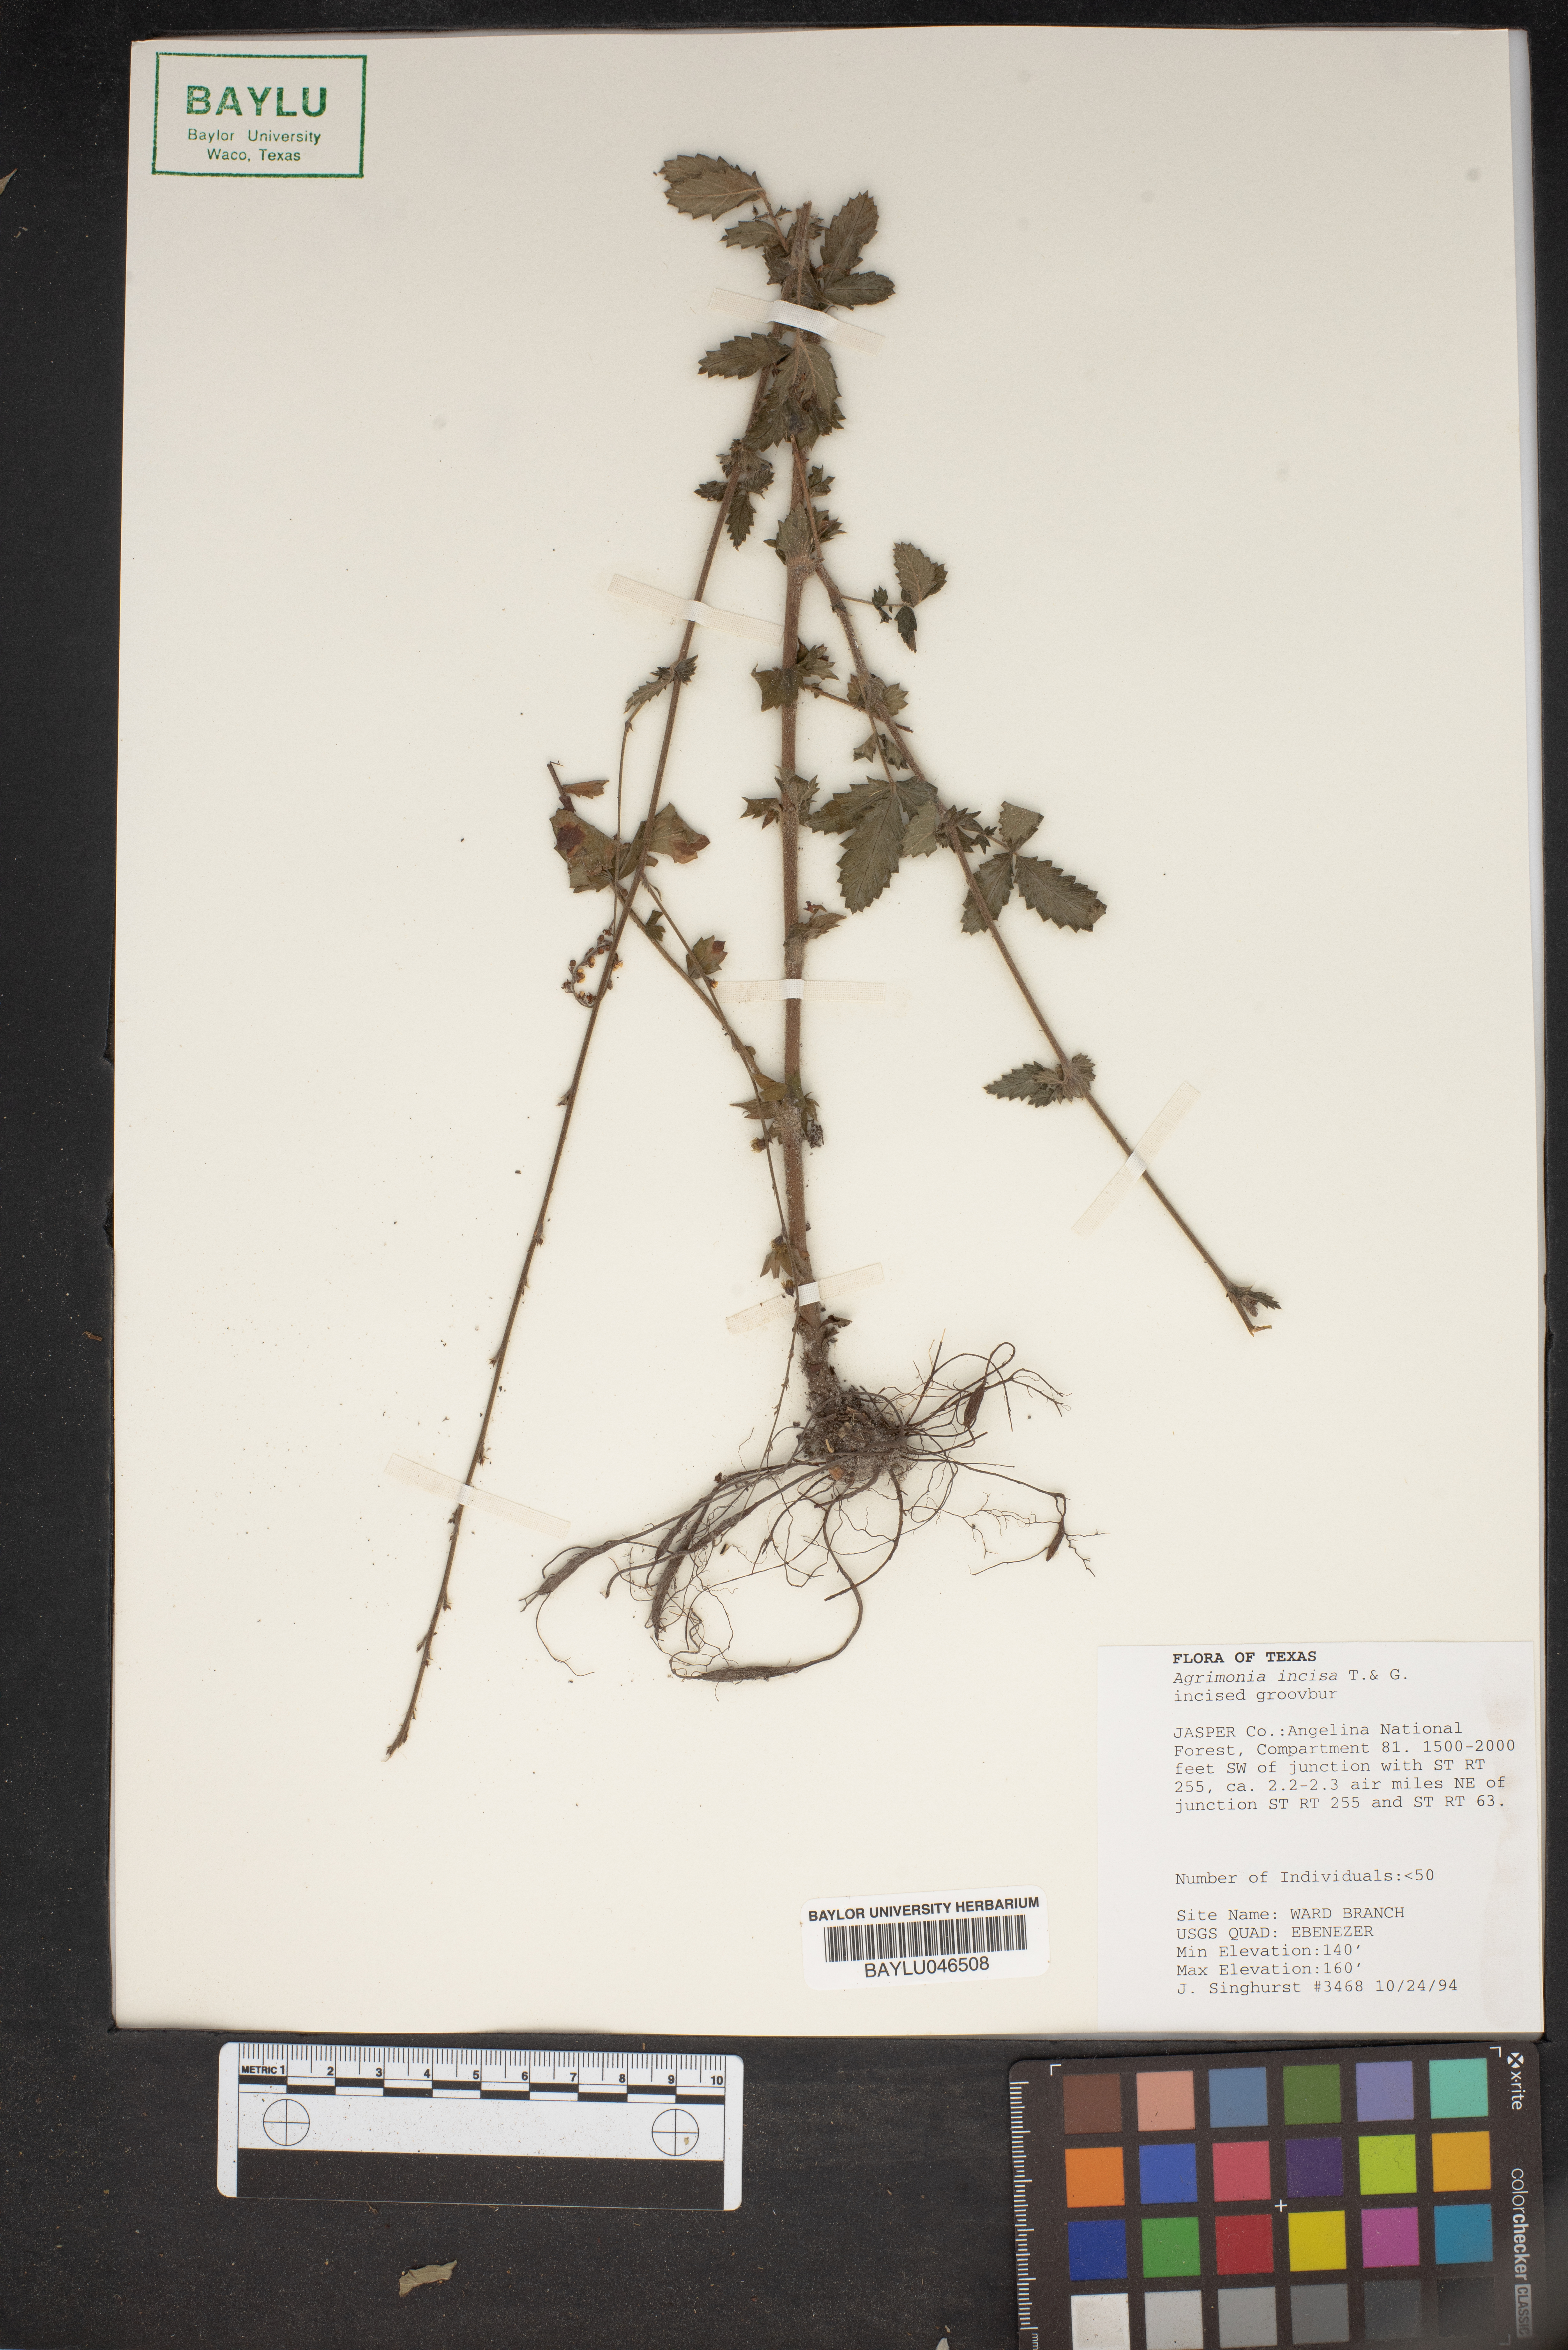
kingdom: Plantae
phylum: Tracheophyta
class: Magnoliopsida
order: Rosales
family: Rosaceae
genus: Agrimonia
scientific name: Agrimonia incisa
